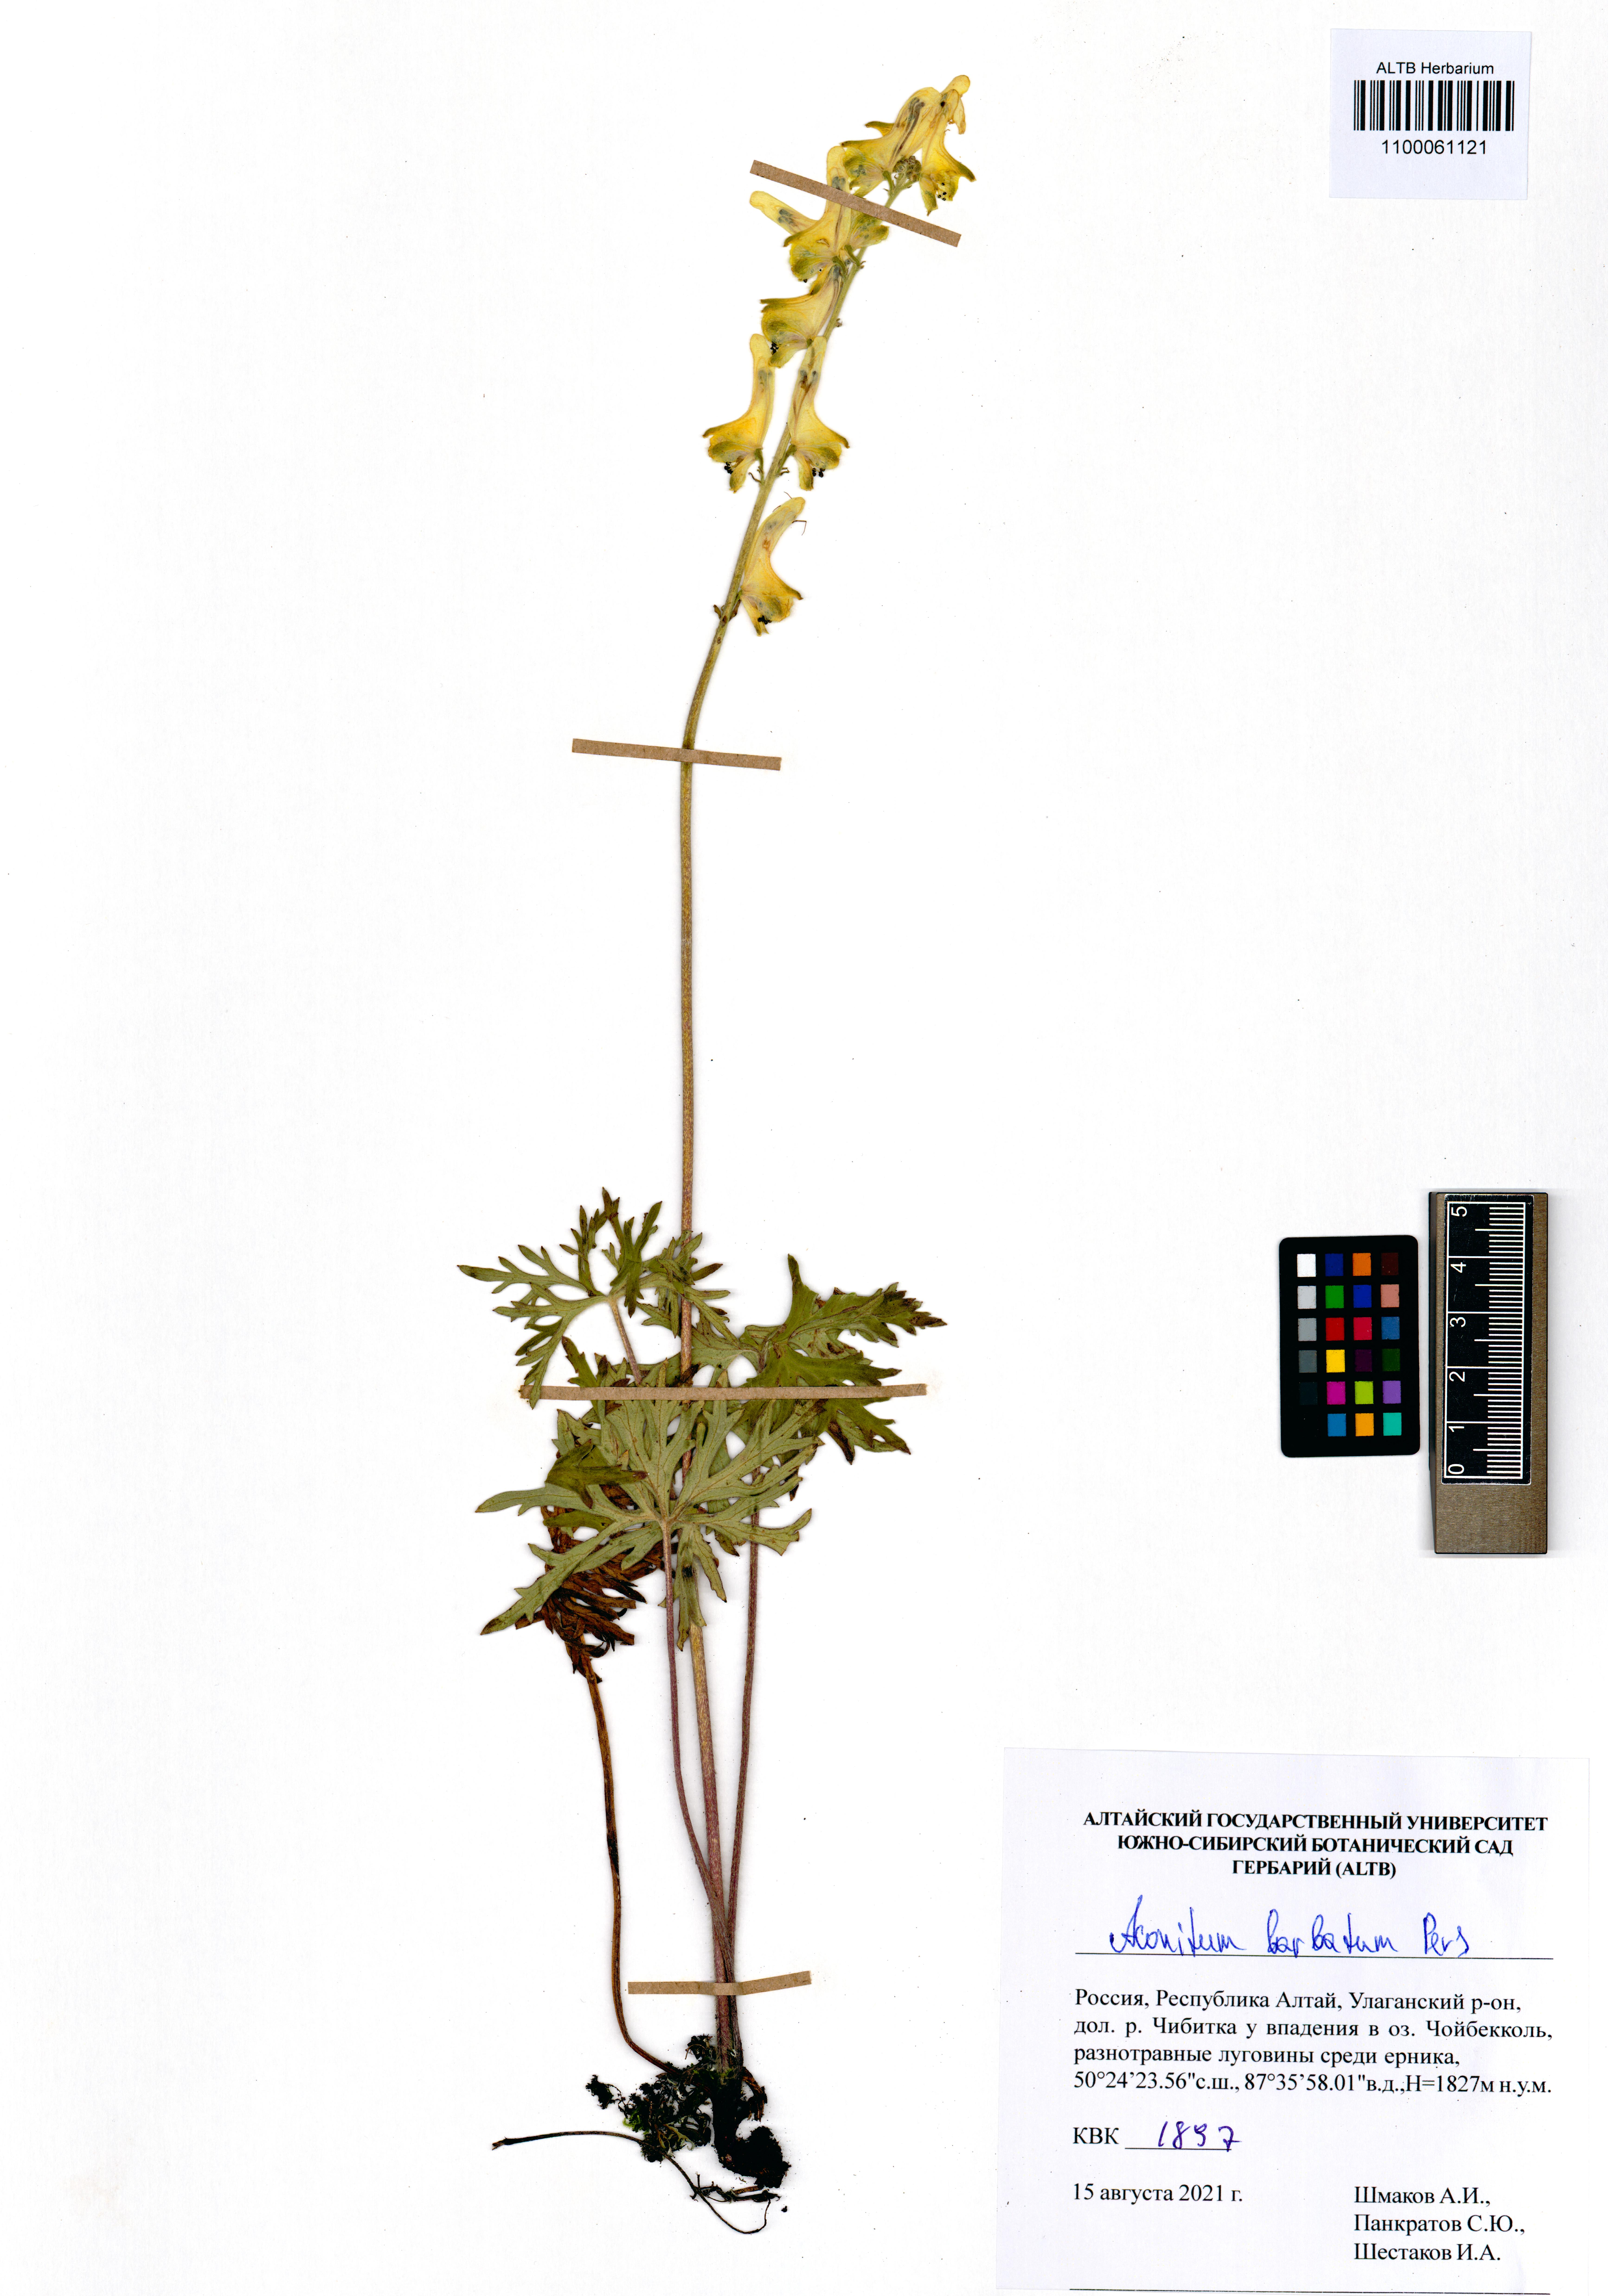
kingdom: Plantae
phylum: Tracheophyta
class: Magnoliopsida
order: Ranunculales
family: Ranunculaceae
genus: Aconitum
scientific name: Aconitum barbatum
